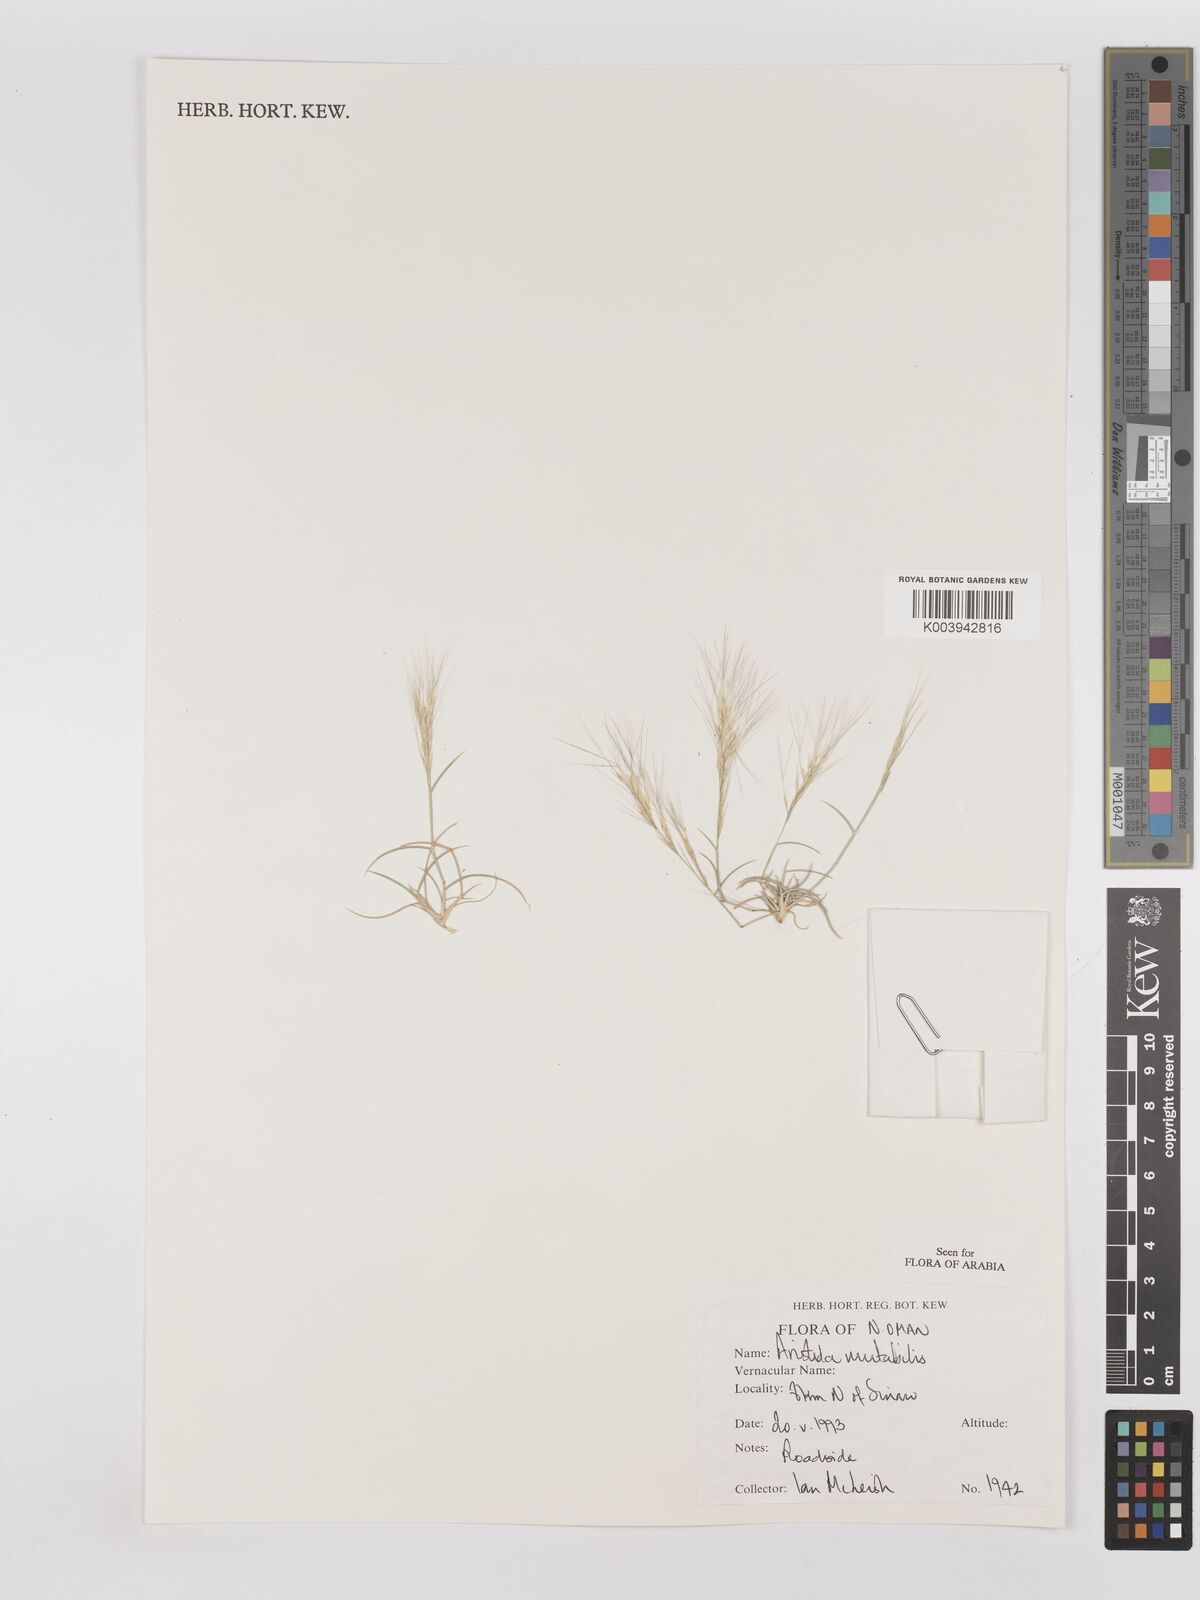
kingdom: Plantae
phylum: Tracheophyta
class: Liliopsida
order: Poales
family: Poaceae
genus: Aristida
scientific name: Aristida mutabilis
